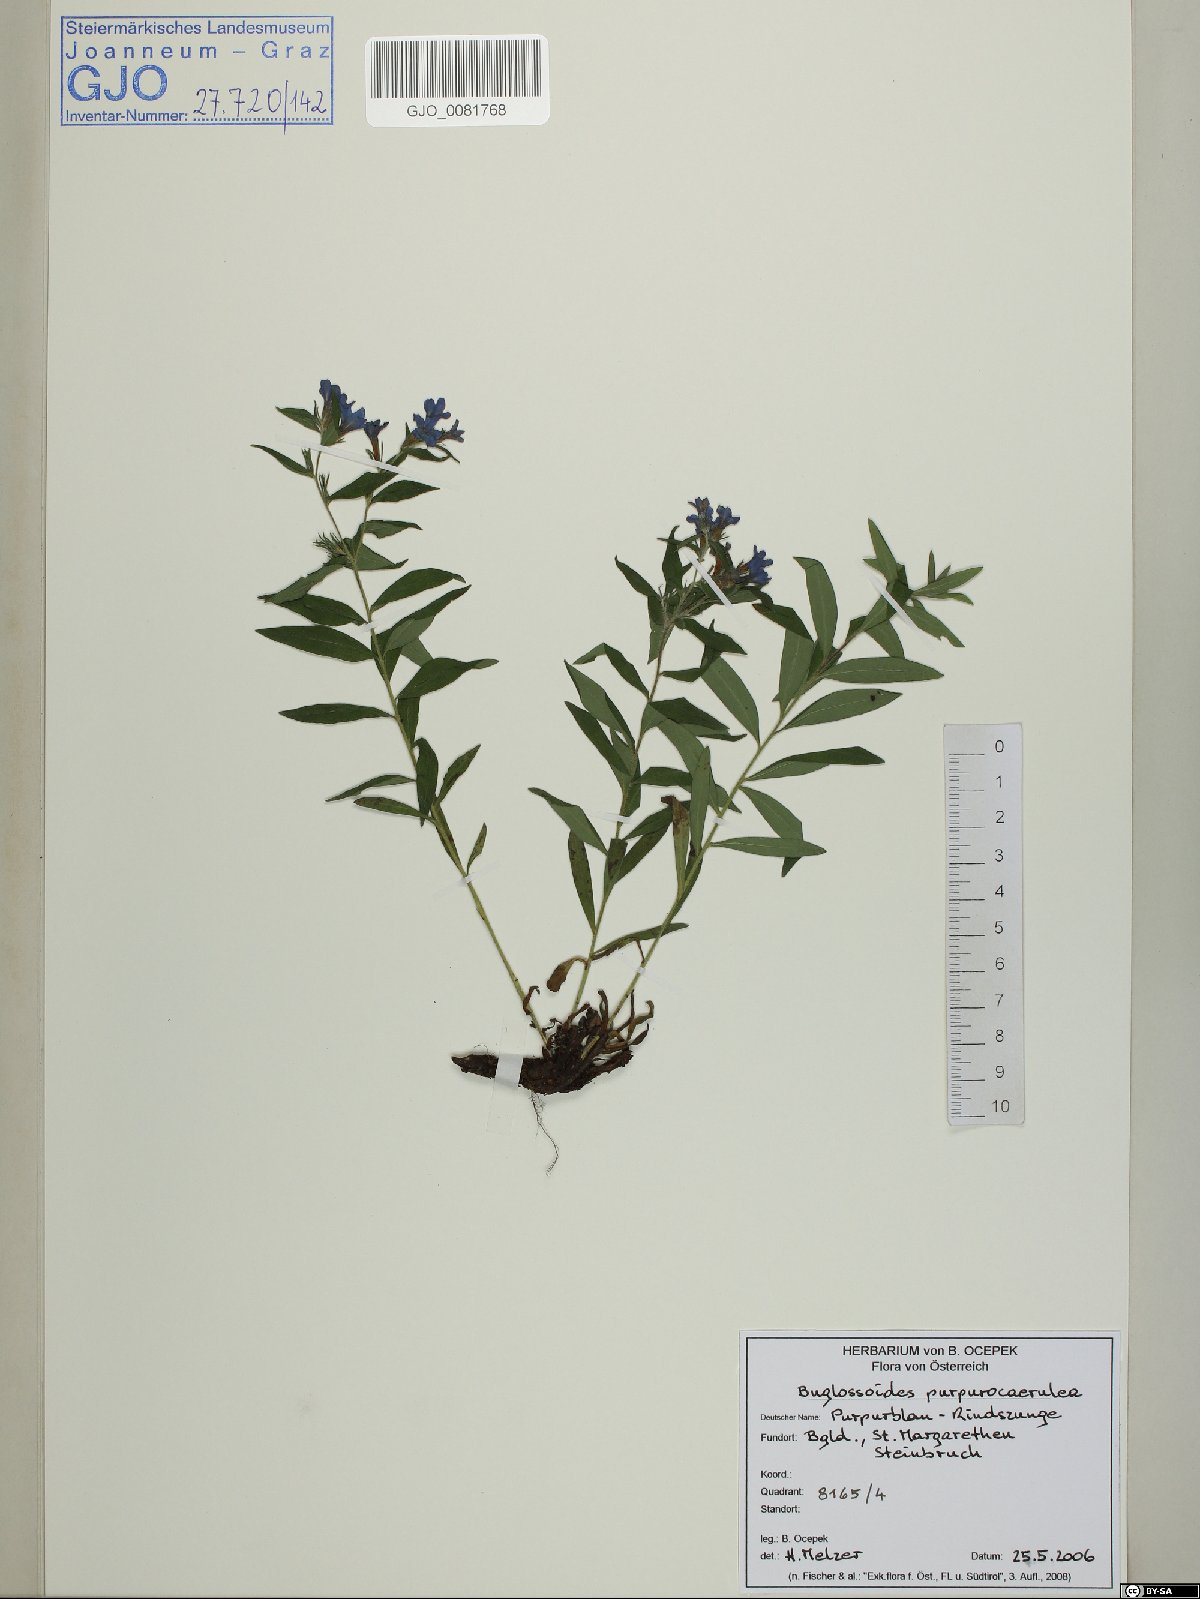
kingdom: Plantae
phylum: Tracheophyta
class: Magnoliopsida
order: Boraginales
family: Boraginaceae
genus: Aegonychon
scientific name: Aegonychon purpurocaeruleum
